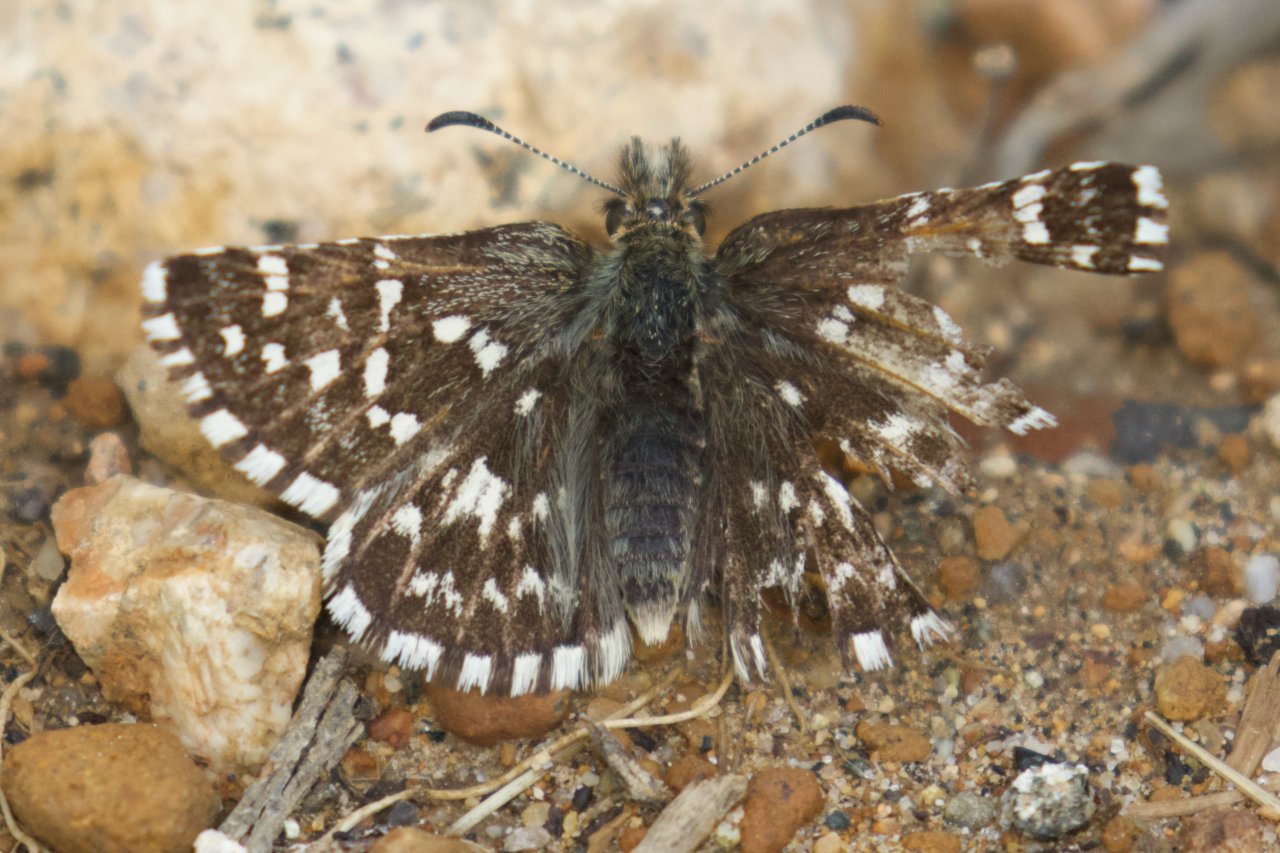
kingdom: Animalia
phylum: Arthropoda
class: Insecta
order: Lepidoptera
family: Hesperiidae
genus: Pyrgus
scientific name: Pyrgus ruralis
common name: Two-banded Checkered-Skipper
